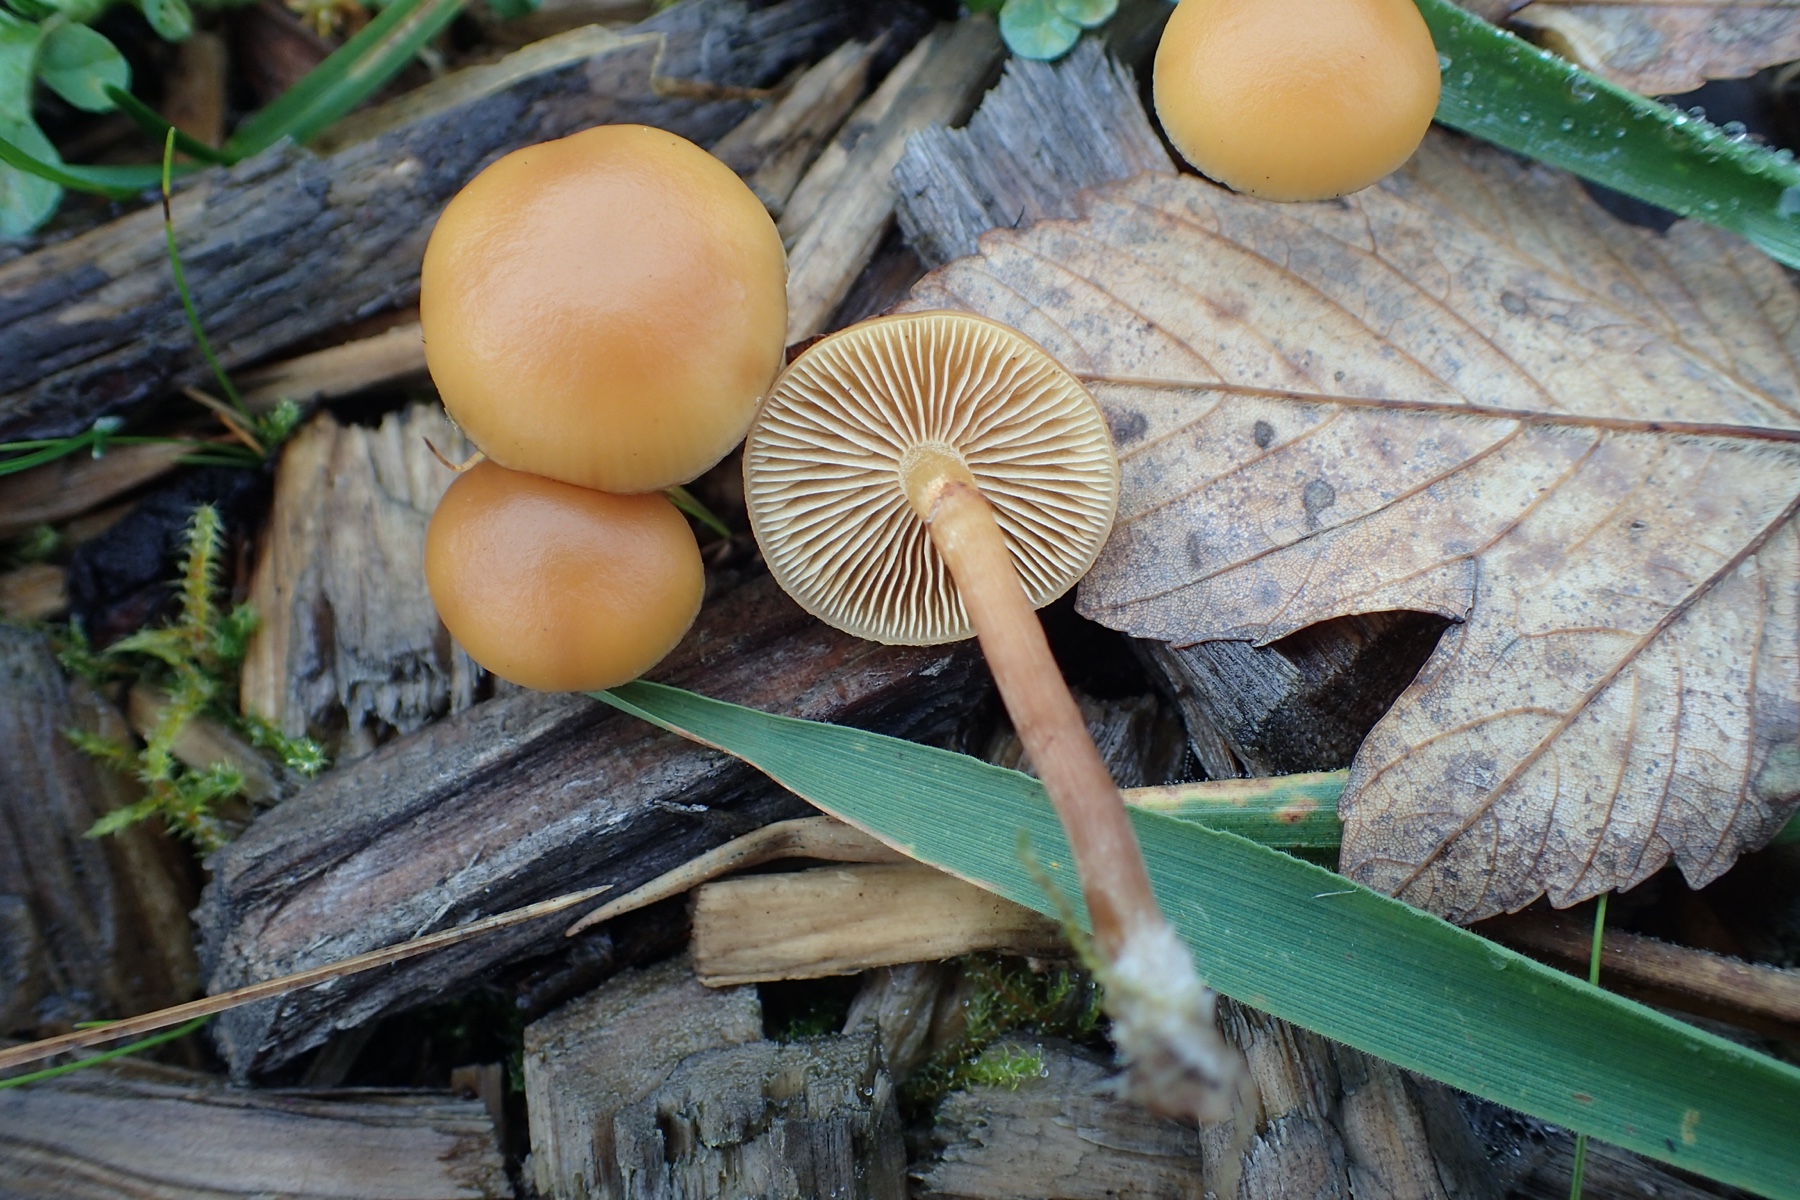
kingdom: Fungi
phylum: Basidiomycota
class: Agaricomycetes
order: Agaricales
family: Hymenogastraceae
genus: Galerina
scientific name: Galerina marginata
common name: randbæltet hjelmhat
